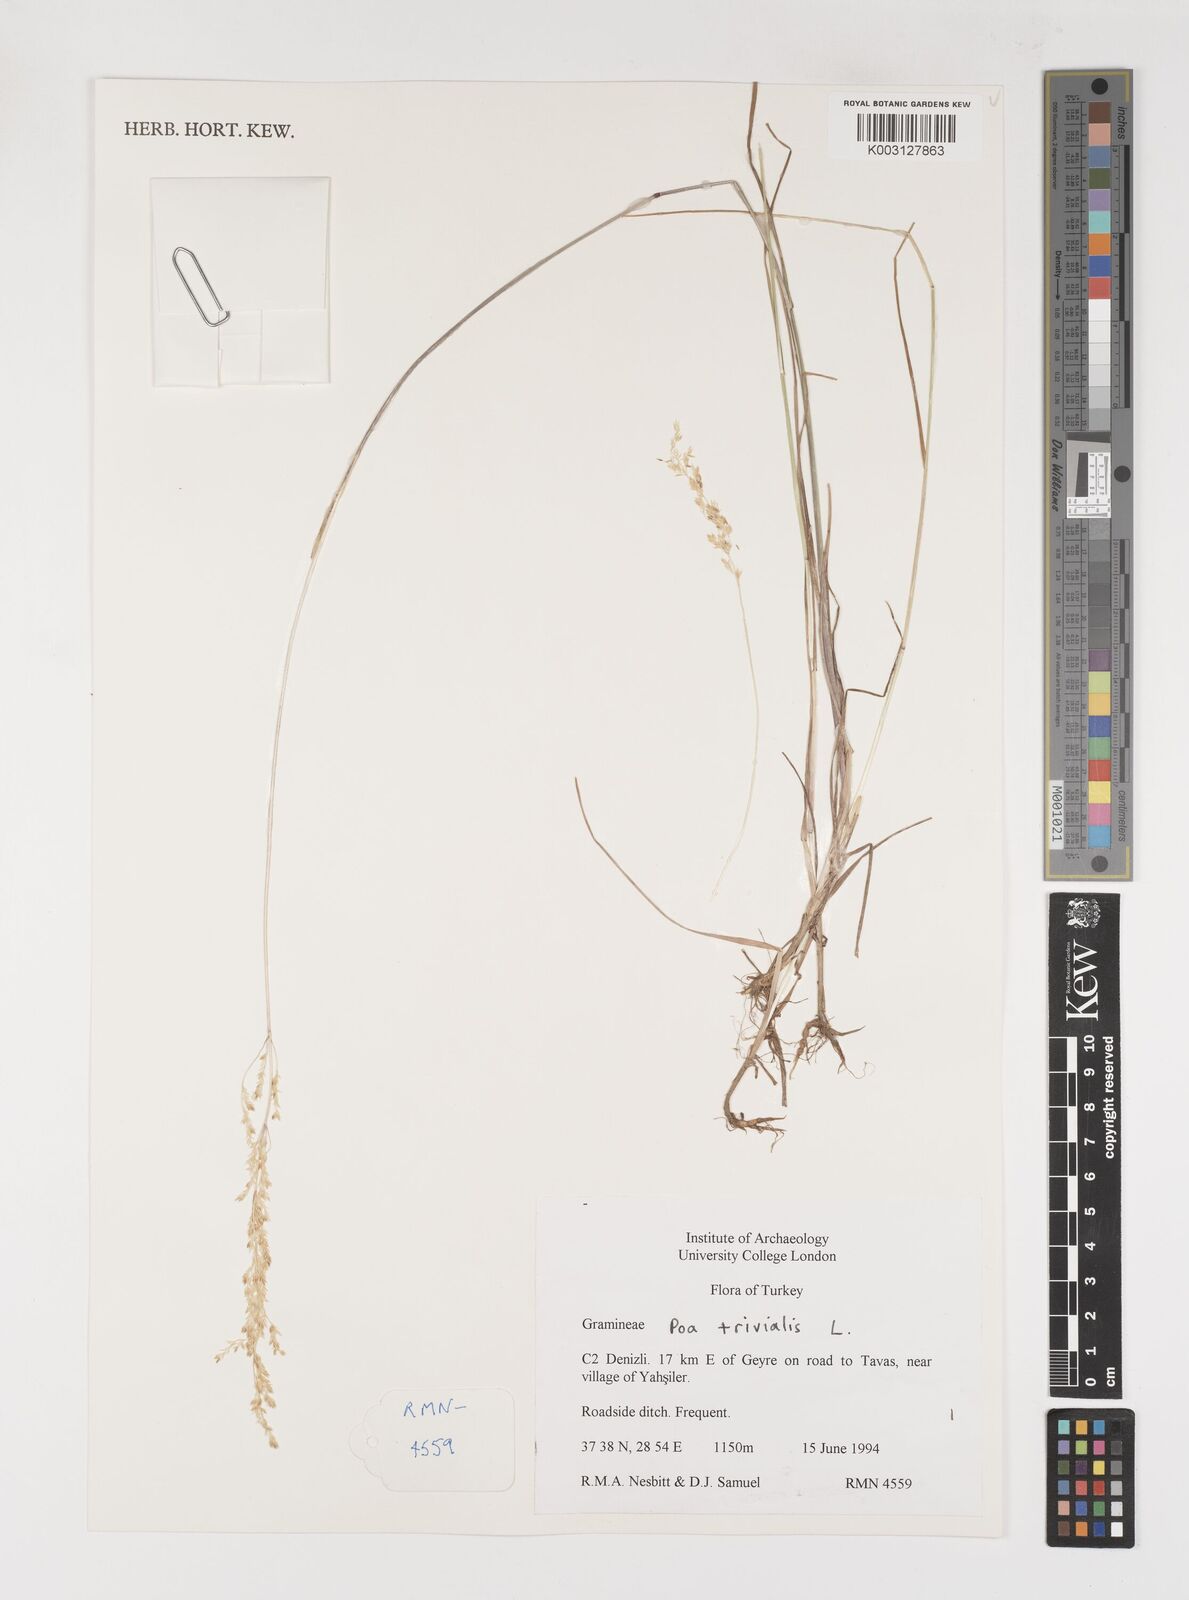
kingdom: Plantae
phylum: Tracheophyta
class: Liliopsida
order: Poales
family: Poaceae
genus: Poa
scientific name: Poa trivialis
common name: Rough bluegrass
